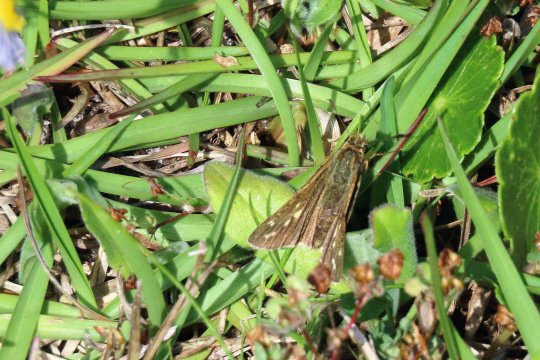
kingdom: Animalia
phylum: Arthropoda
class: Insecta
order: Lepidoptera
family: Hesperiidae
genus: Panoquina
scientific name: Panoquina panoquin
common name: Salt Marsh Skipper
